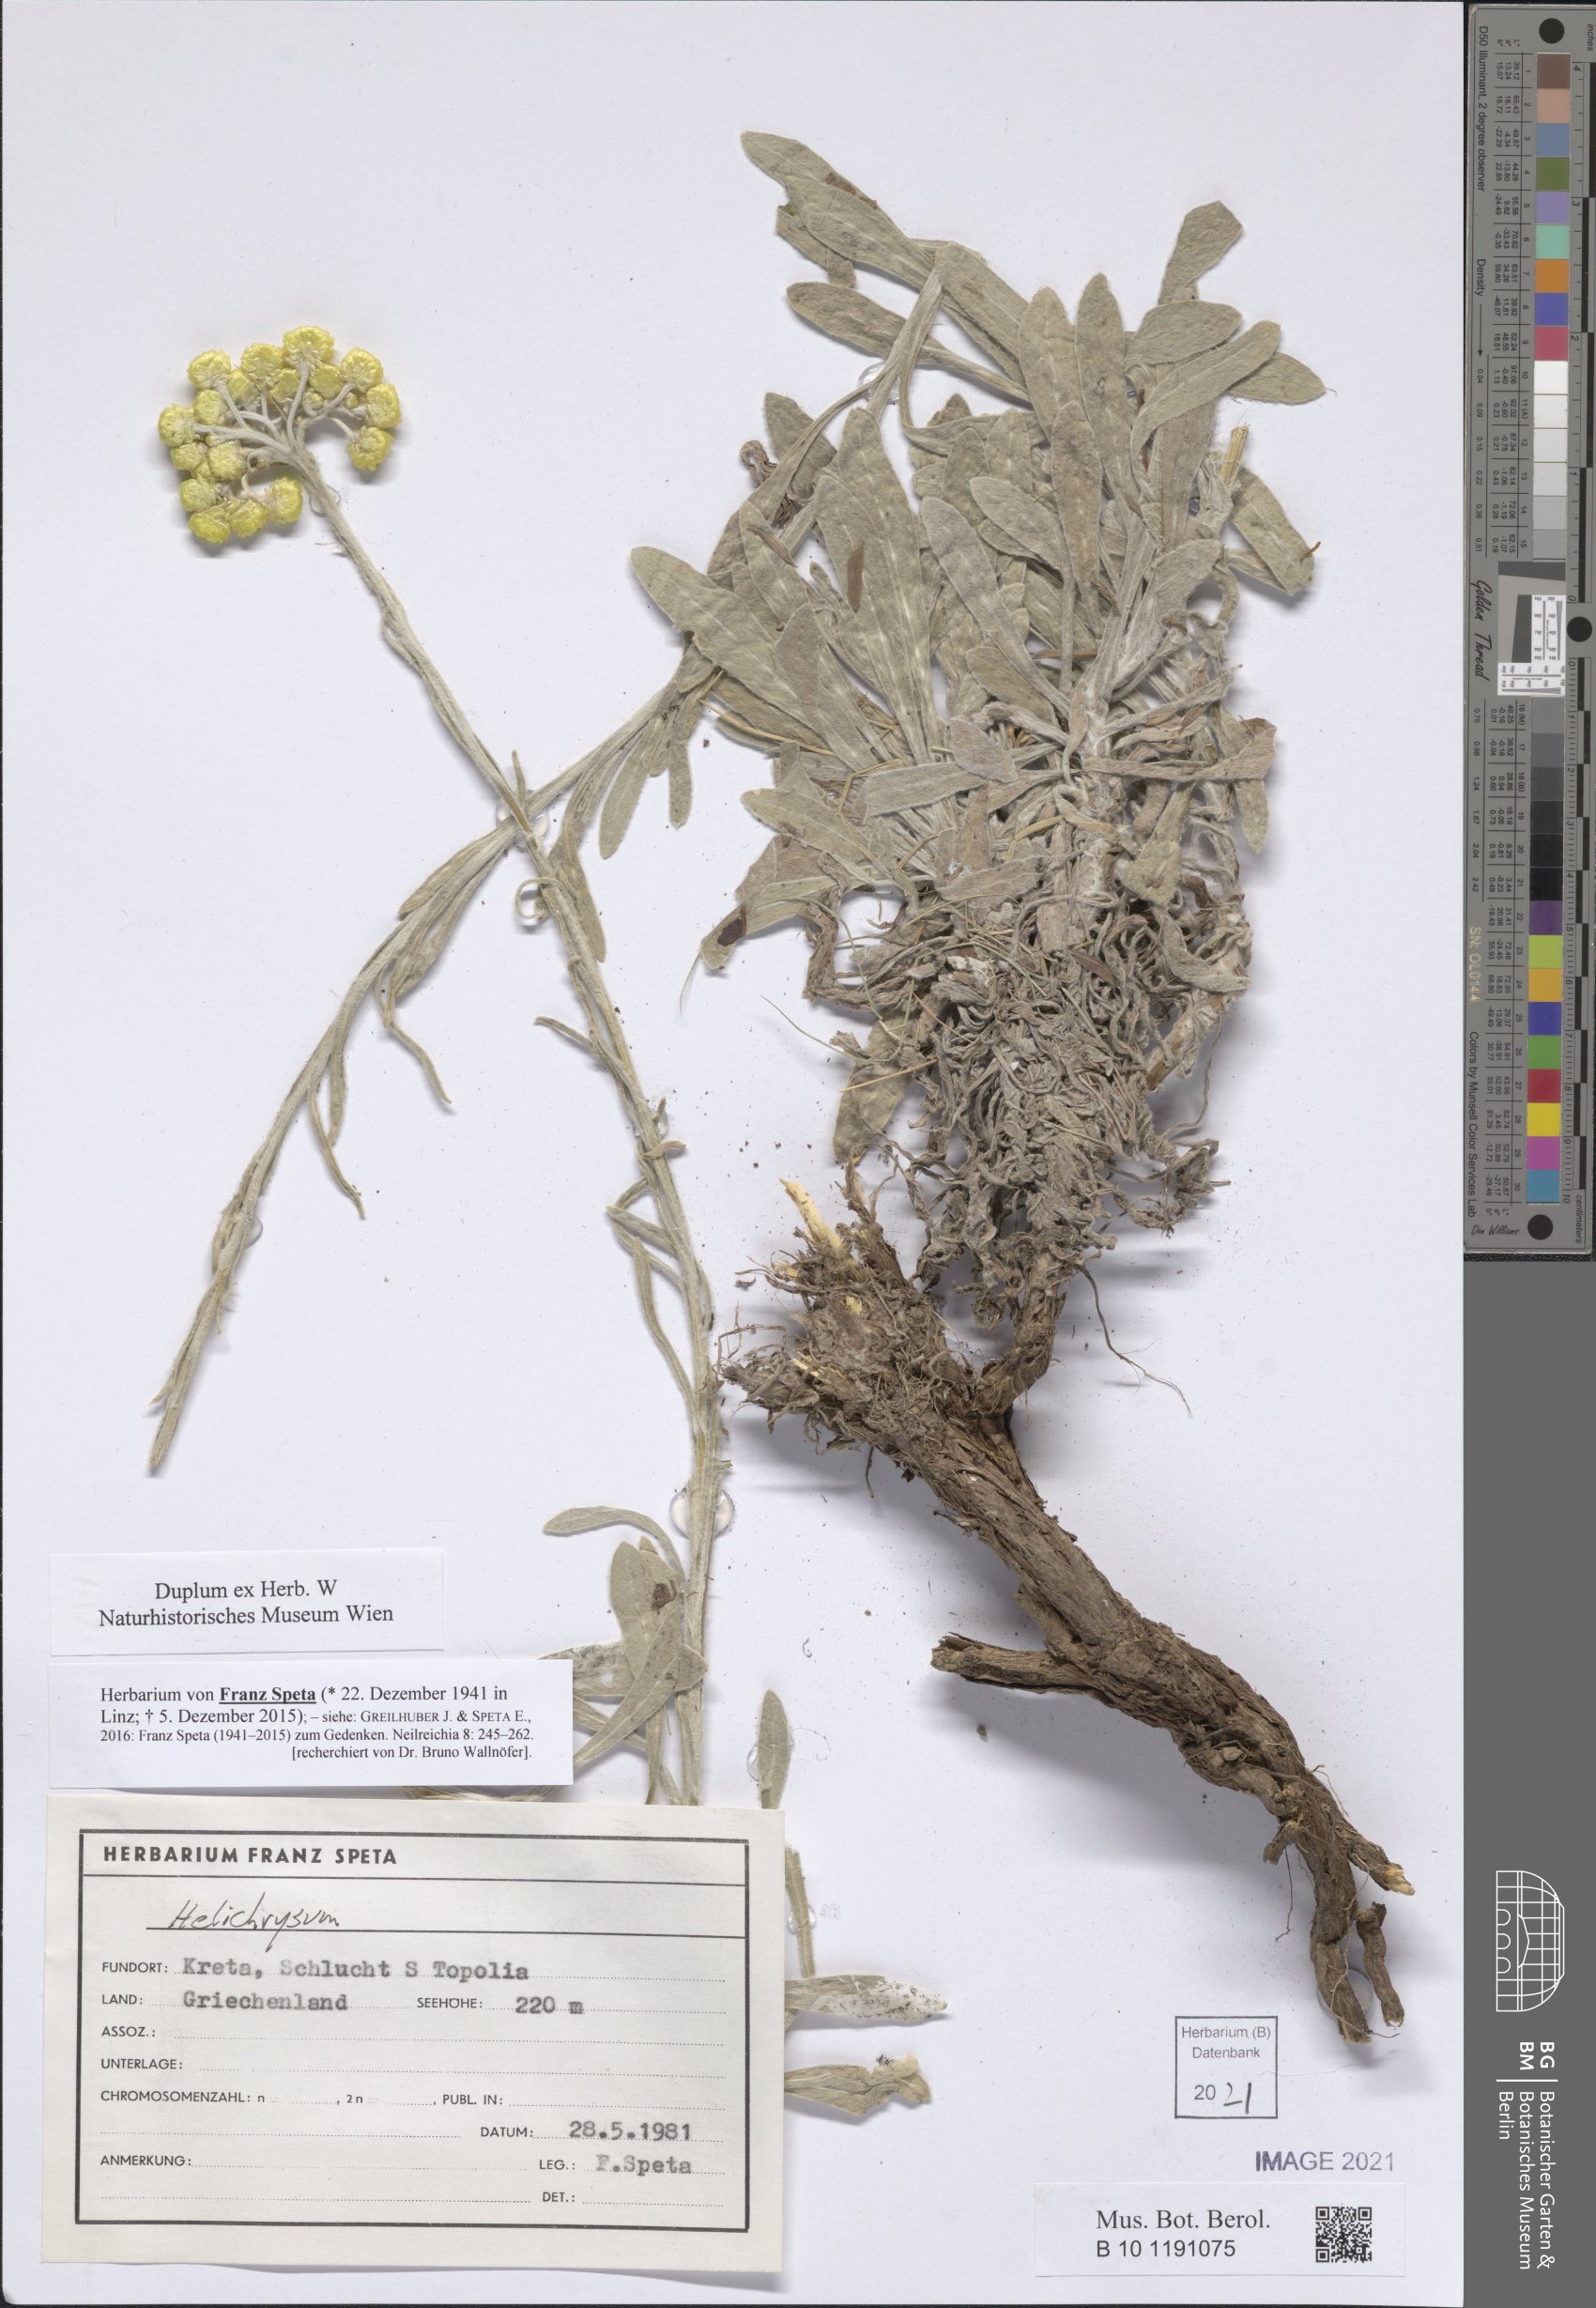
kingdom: Plantae
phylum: Tracheophyta
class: Magnoliopsida
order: Asterales
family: Asteraceae
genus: Helichrysum
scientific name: Helichrysum
